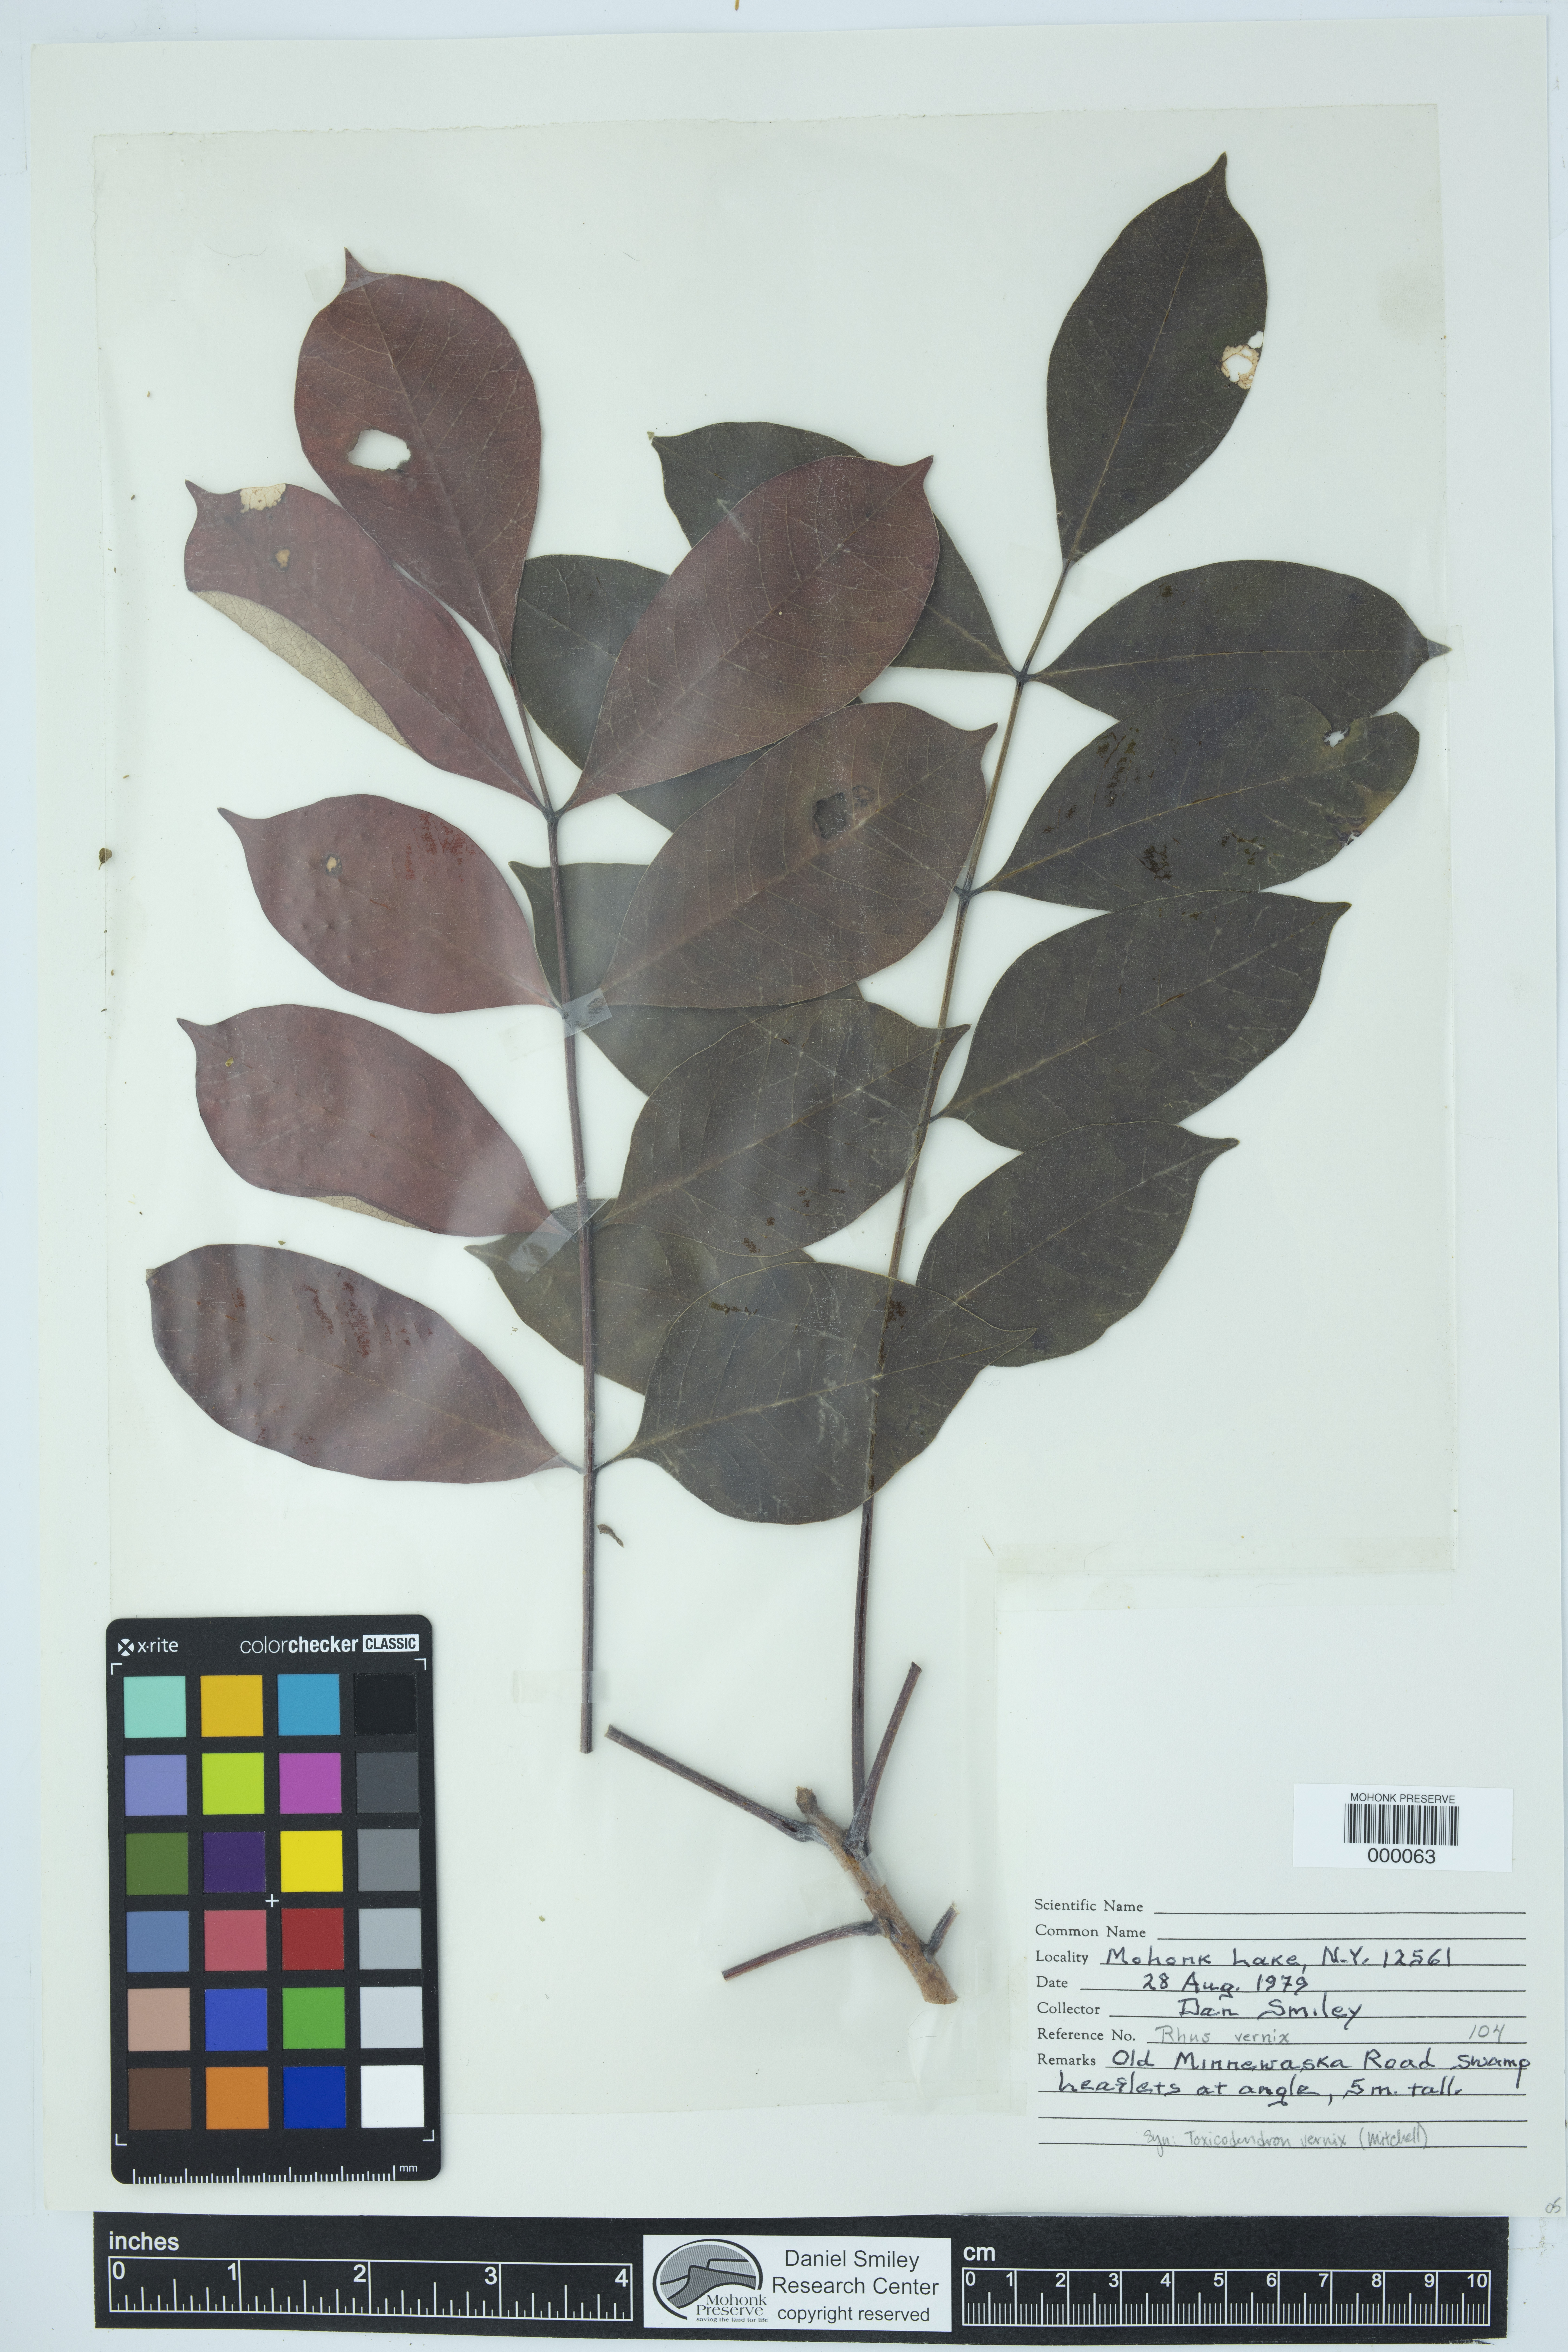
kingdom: Plantae
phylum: Tracheophyta
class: Magnoliopsida
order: Sapindales
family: Anacardiaceae
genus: Toxicodendron
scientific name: Toxicodendron vernix
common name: Poison sumac
